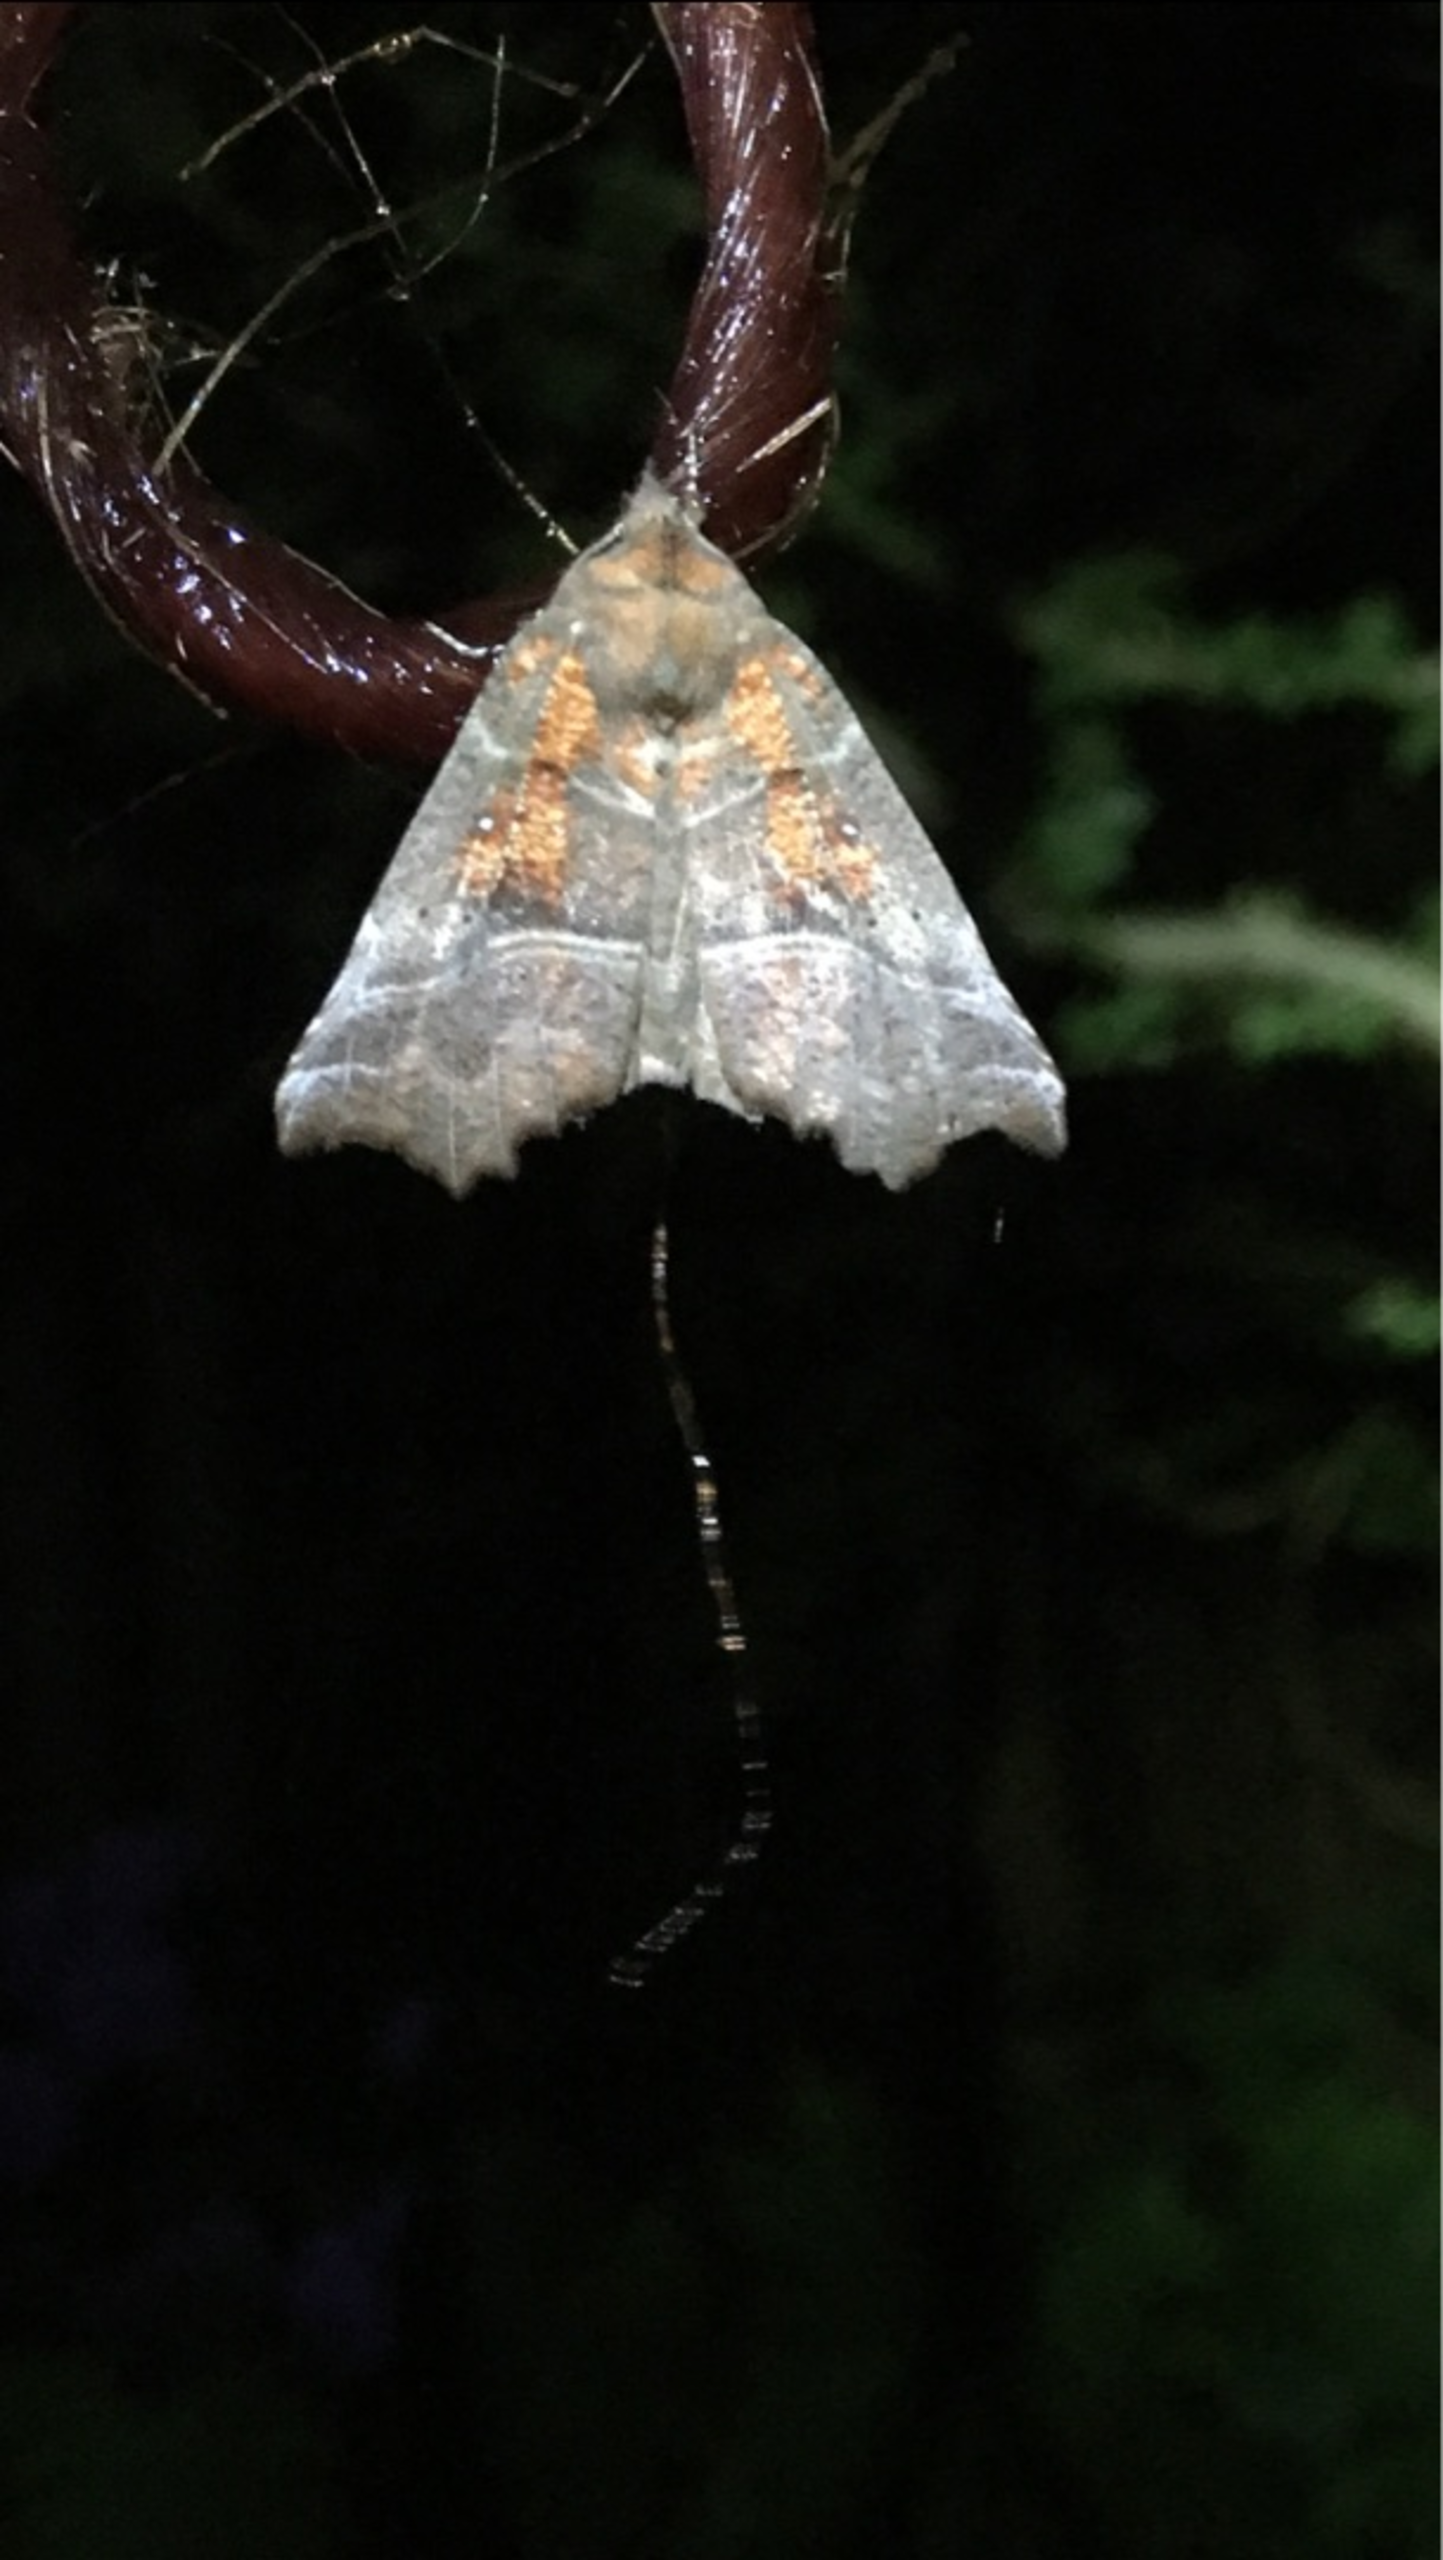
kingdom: Animalia
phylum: Arthropoda
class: Insecta
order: Lepidoptera
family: Erebidae
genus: Scoliopteryx
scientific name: Scoliopteryx libatrix
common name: Husmoderugle
